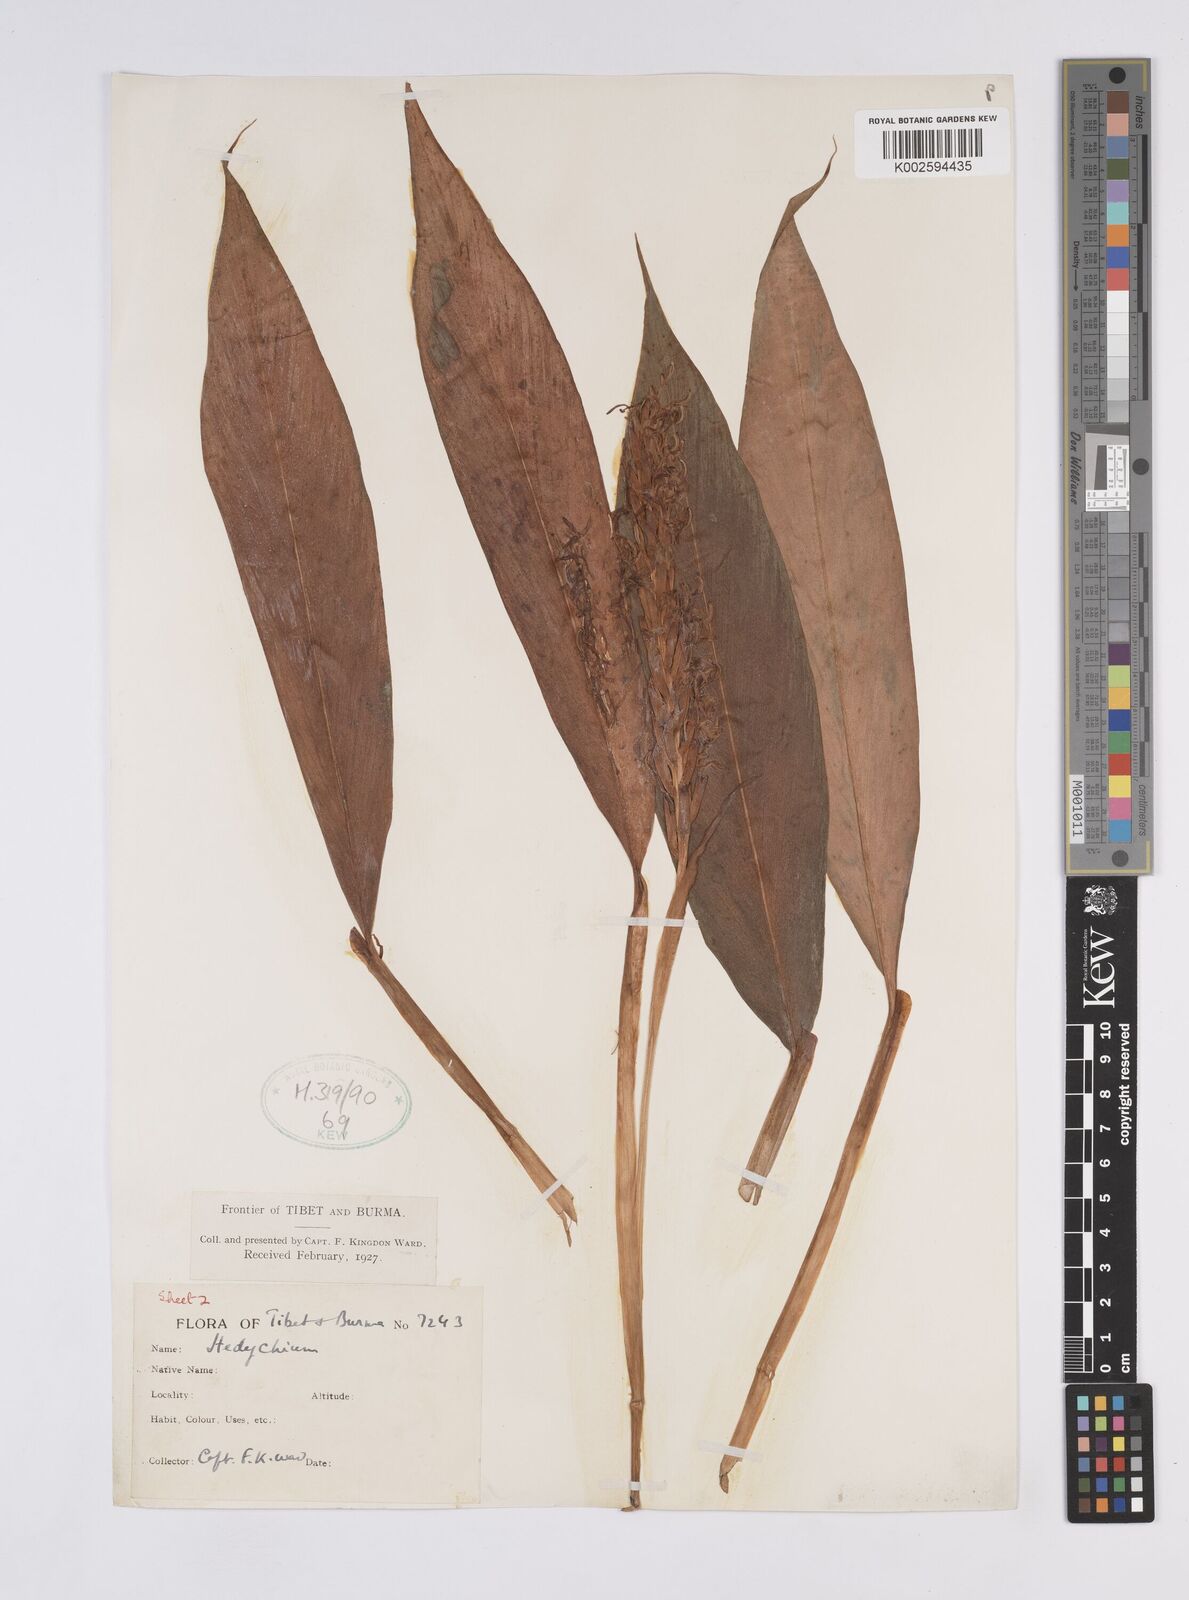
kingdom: Plantae
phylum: Tracheophyta
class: Liliopsida
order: Zingiberales
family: Zingiberaceae
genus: Hedychium
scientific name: Hedychium densiflorum
